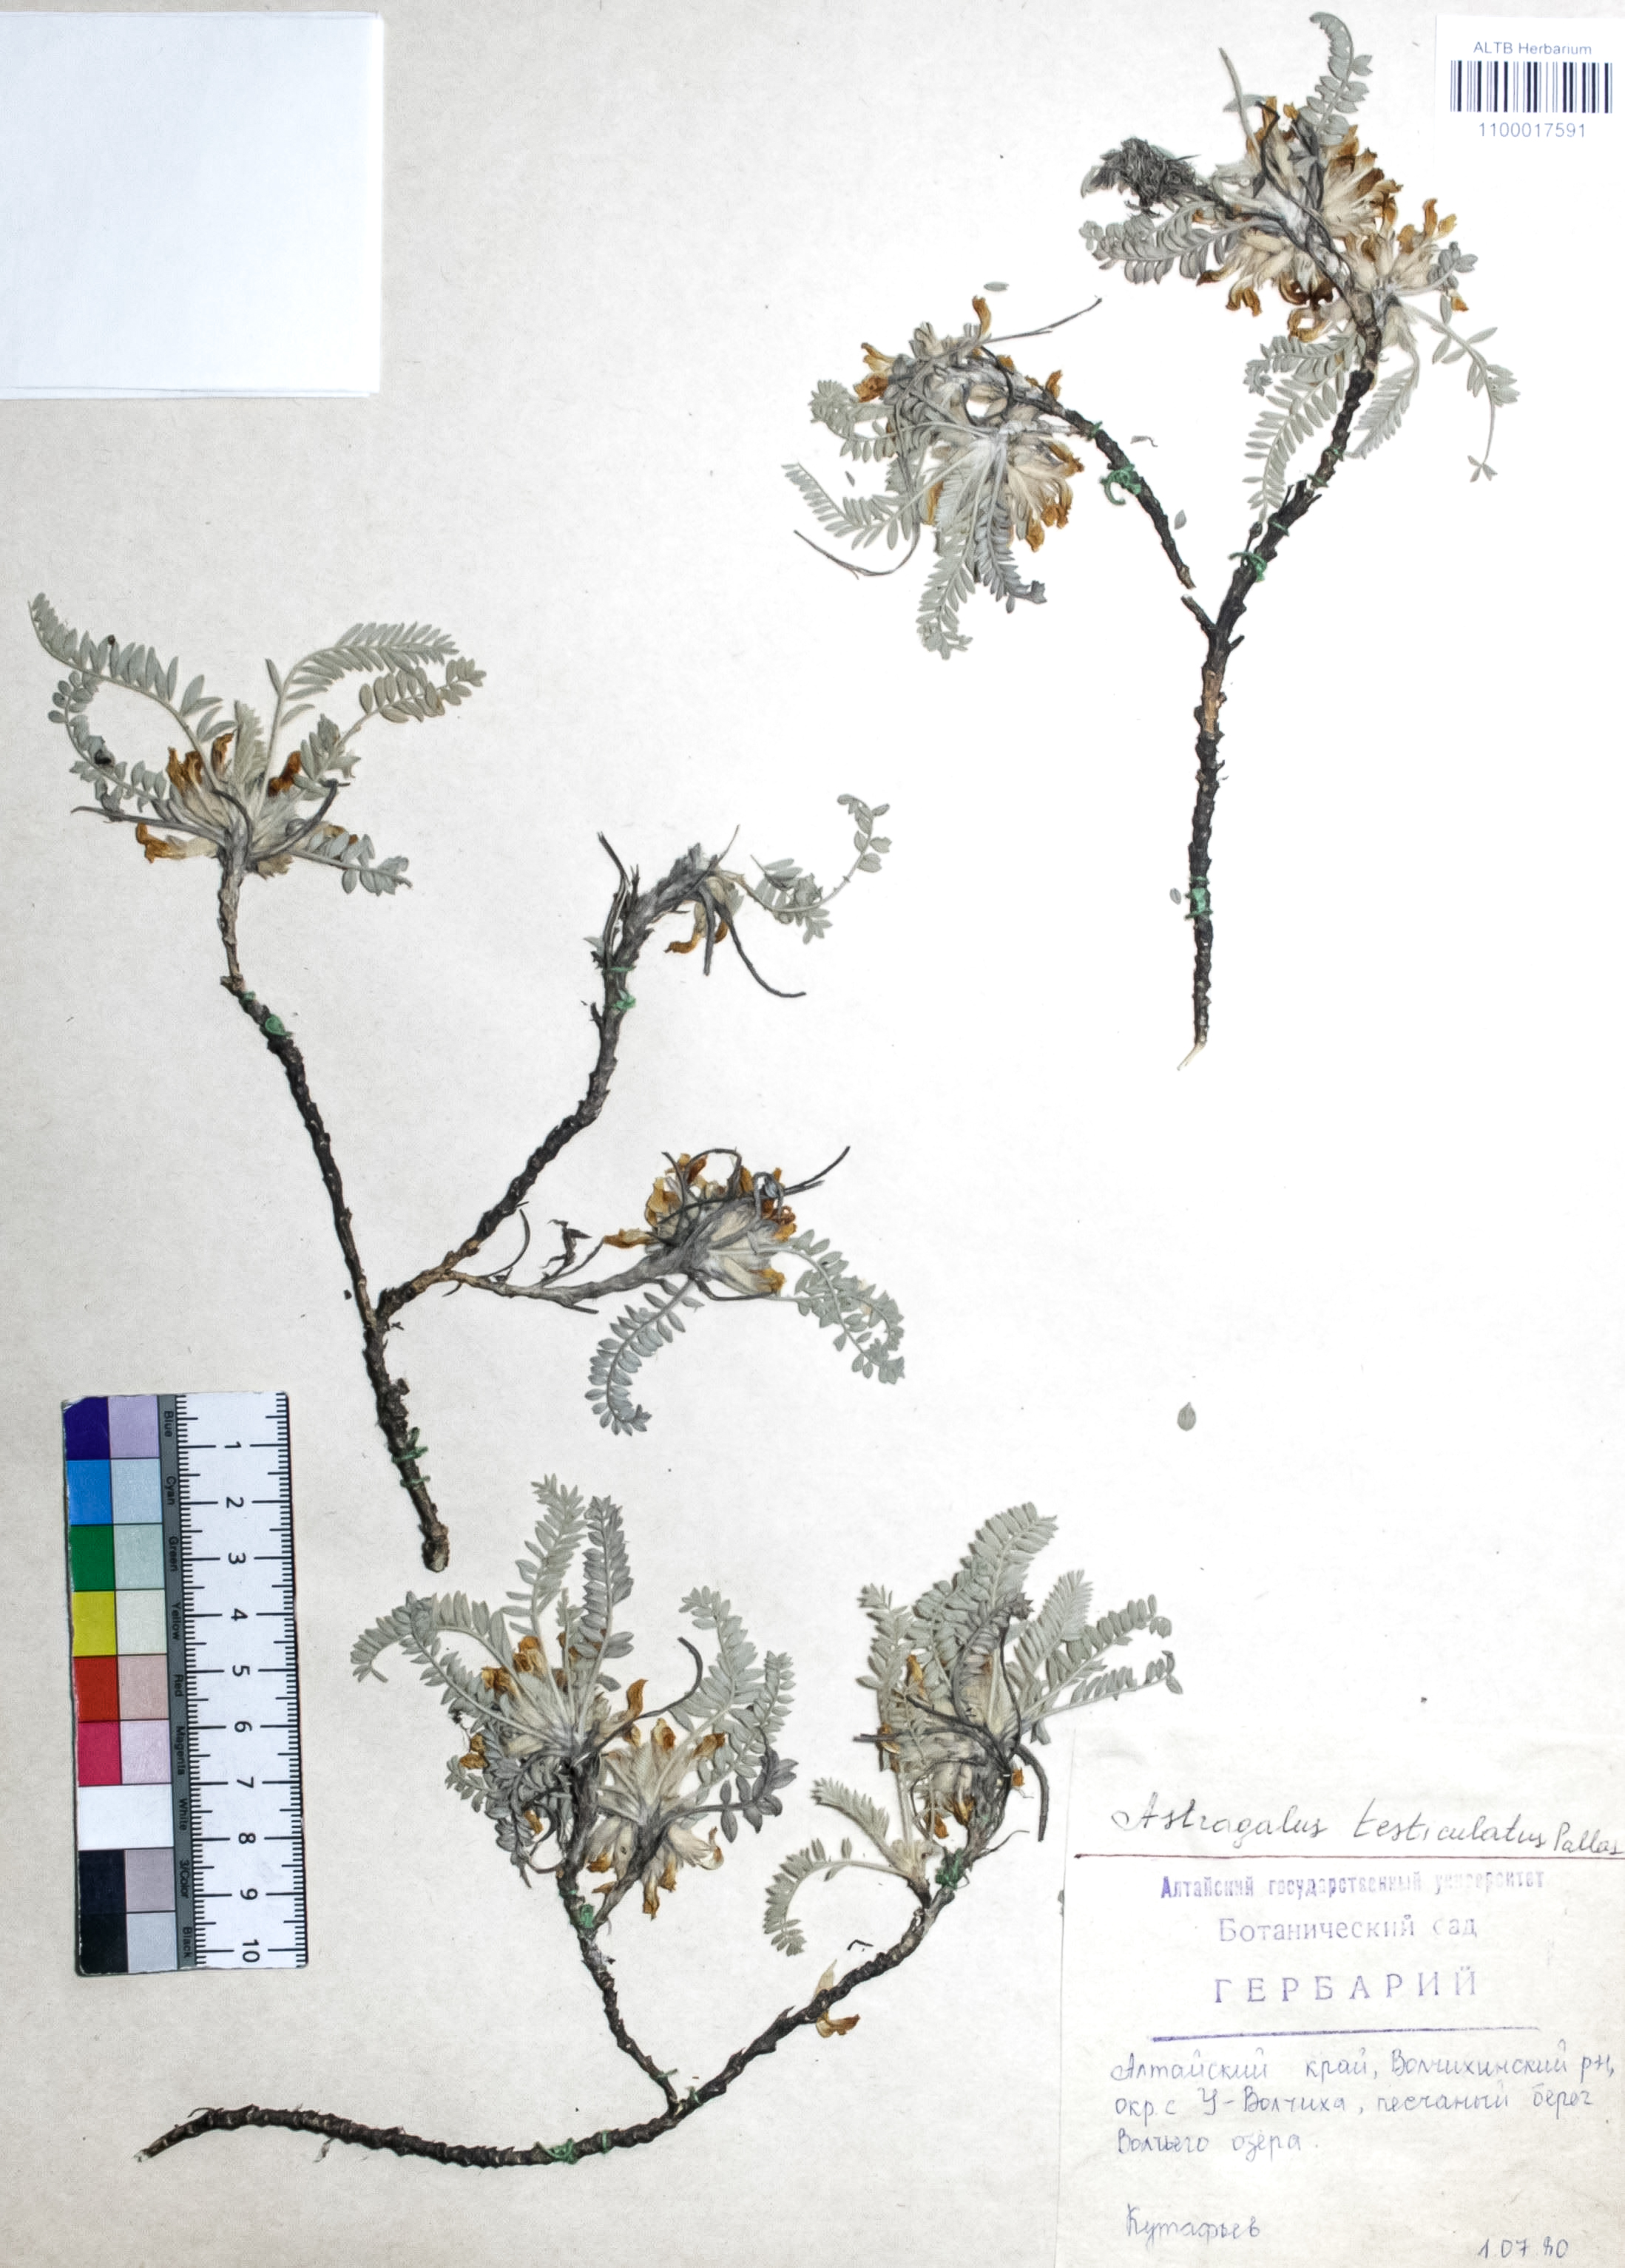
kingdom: Plantae
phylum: Tracheophyta
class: Magnoliopsida
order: Fabales
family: Fabaceae
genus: Astragalus
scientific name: Astragalus testiculatus
